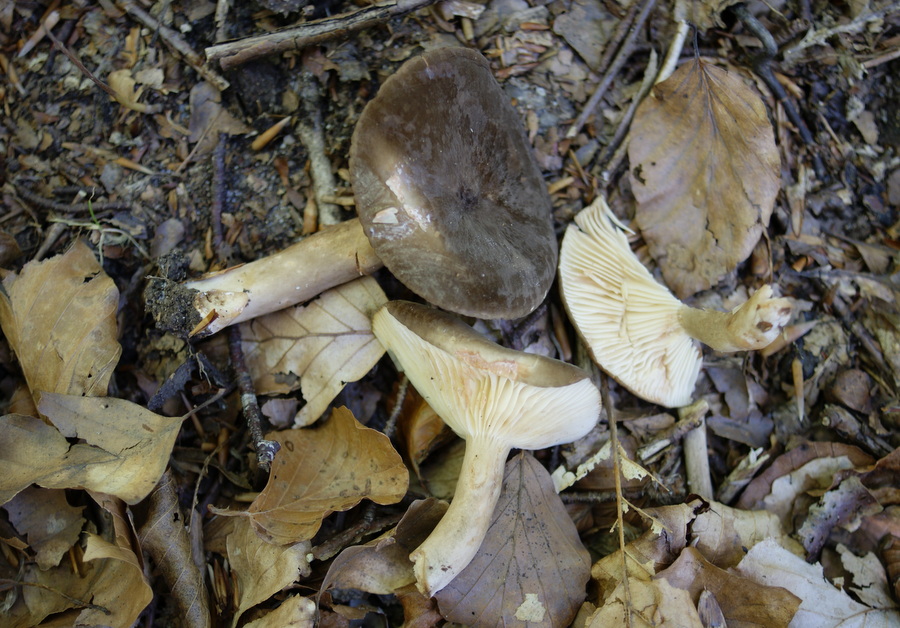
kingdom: Fungi
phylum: Basidiomycota
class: Agaricomycetes
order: Russulales
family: Russulaceae
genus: Lactarius
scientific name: Lactarius romagnesii
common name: fjernbladet mælkehat
